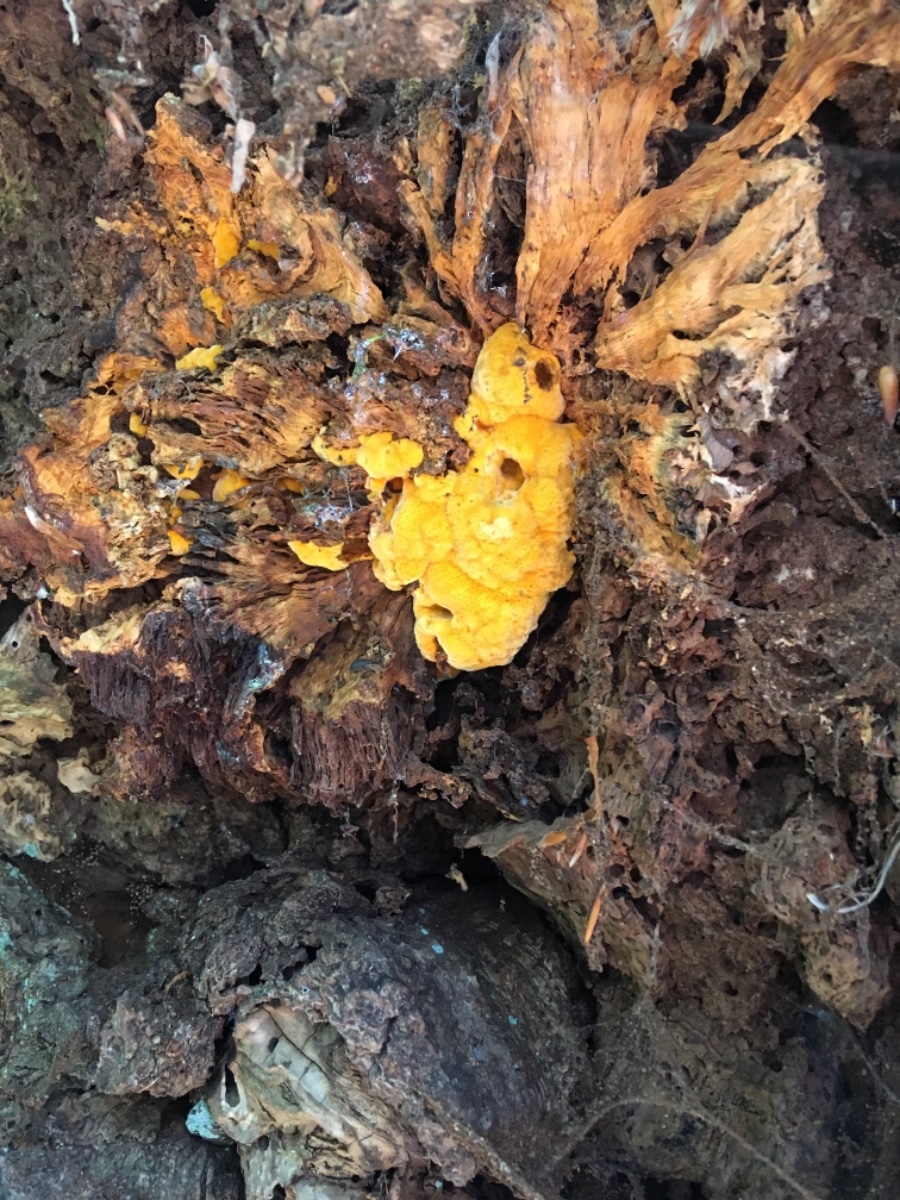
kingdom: Fungi
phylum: Basidiomycota
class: Agaricomycetes
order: Polyporales
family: Phanerochaetaceae
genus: Hapalopilus
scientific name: Hapalopilus croceus
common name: safrangul pragtporesvamp
